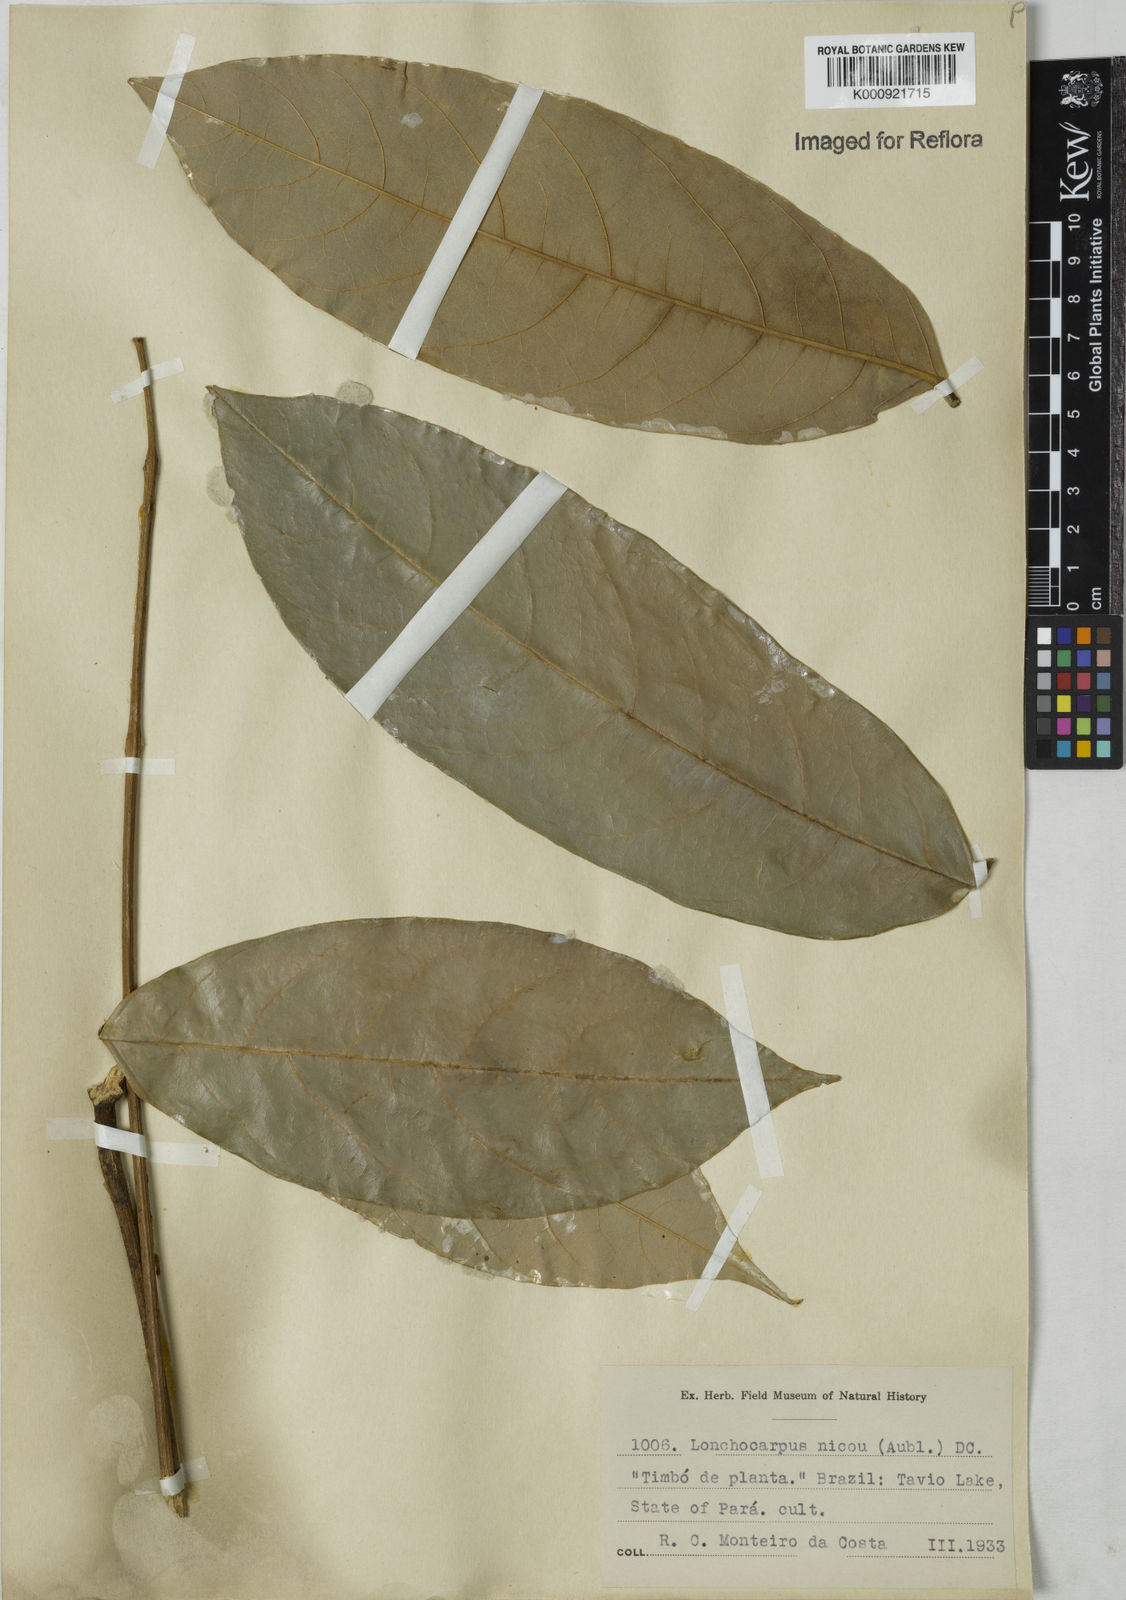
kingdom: Plantae
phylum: Tracheophyta
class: Magnoliopsida
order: Fabales
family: Fabaceae
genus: Lonchocarpus
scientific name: Lonchocarpus
